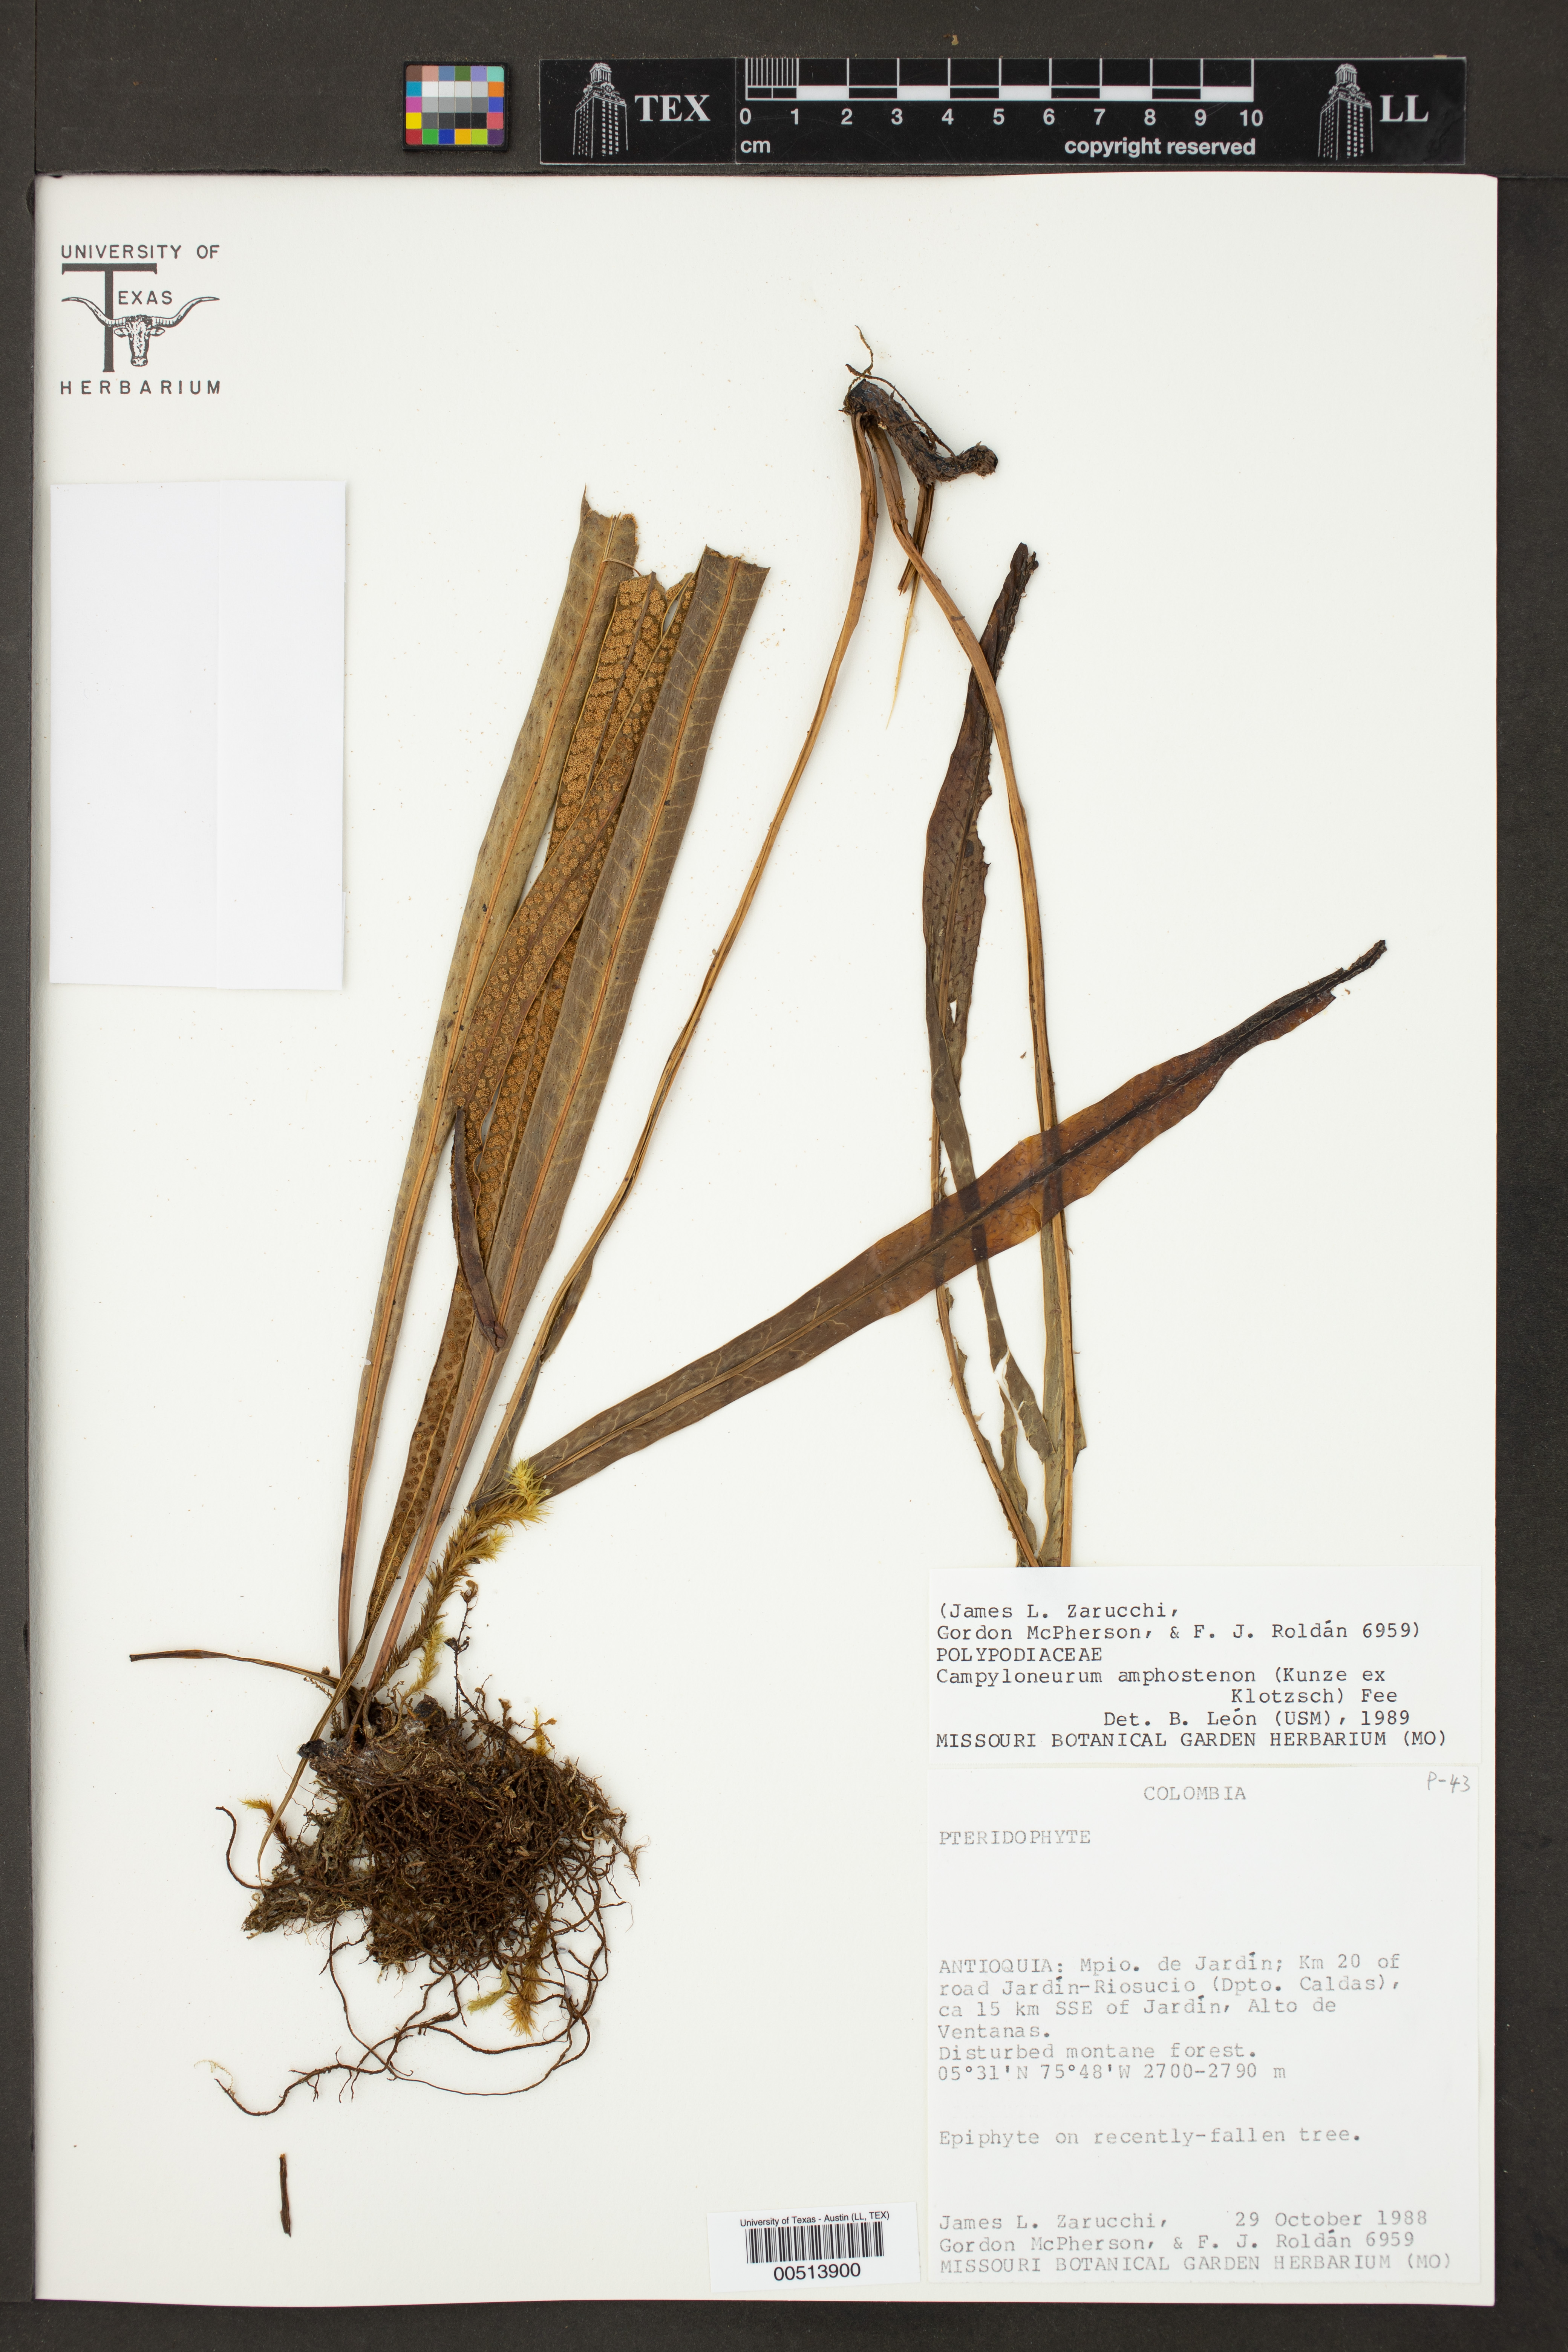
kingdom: Plantae
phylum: Tracheophyta
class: Polypodiopsida
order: Polypodiales
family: Polypodiaceae
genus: Campyloneurum
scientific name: Campyloneurum amphostenon
